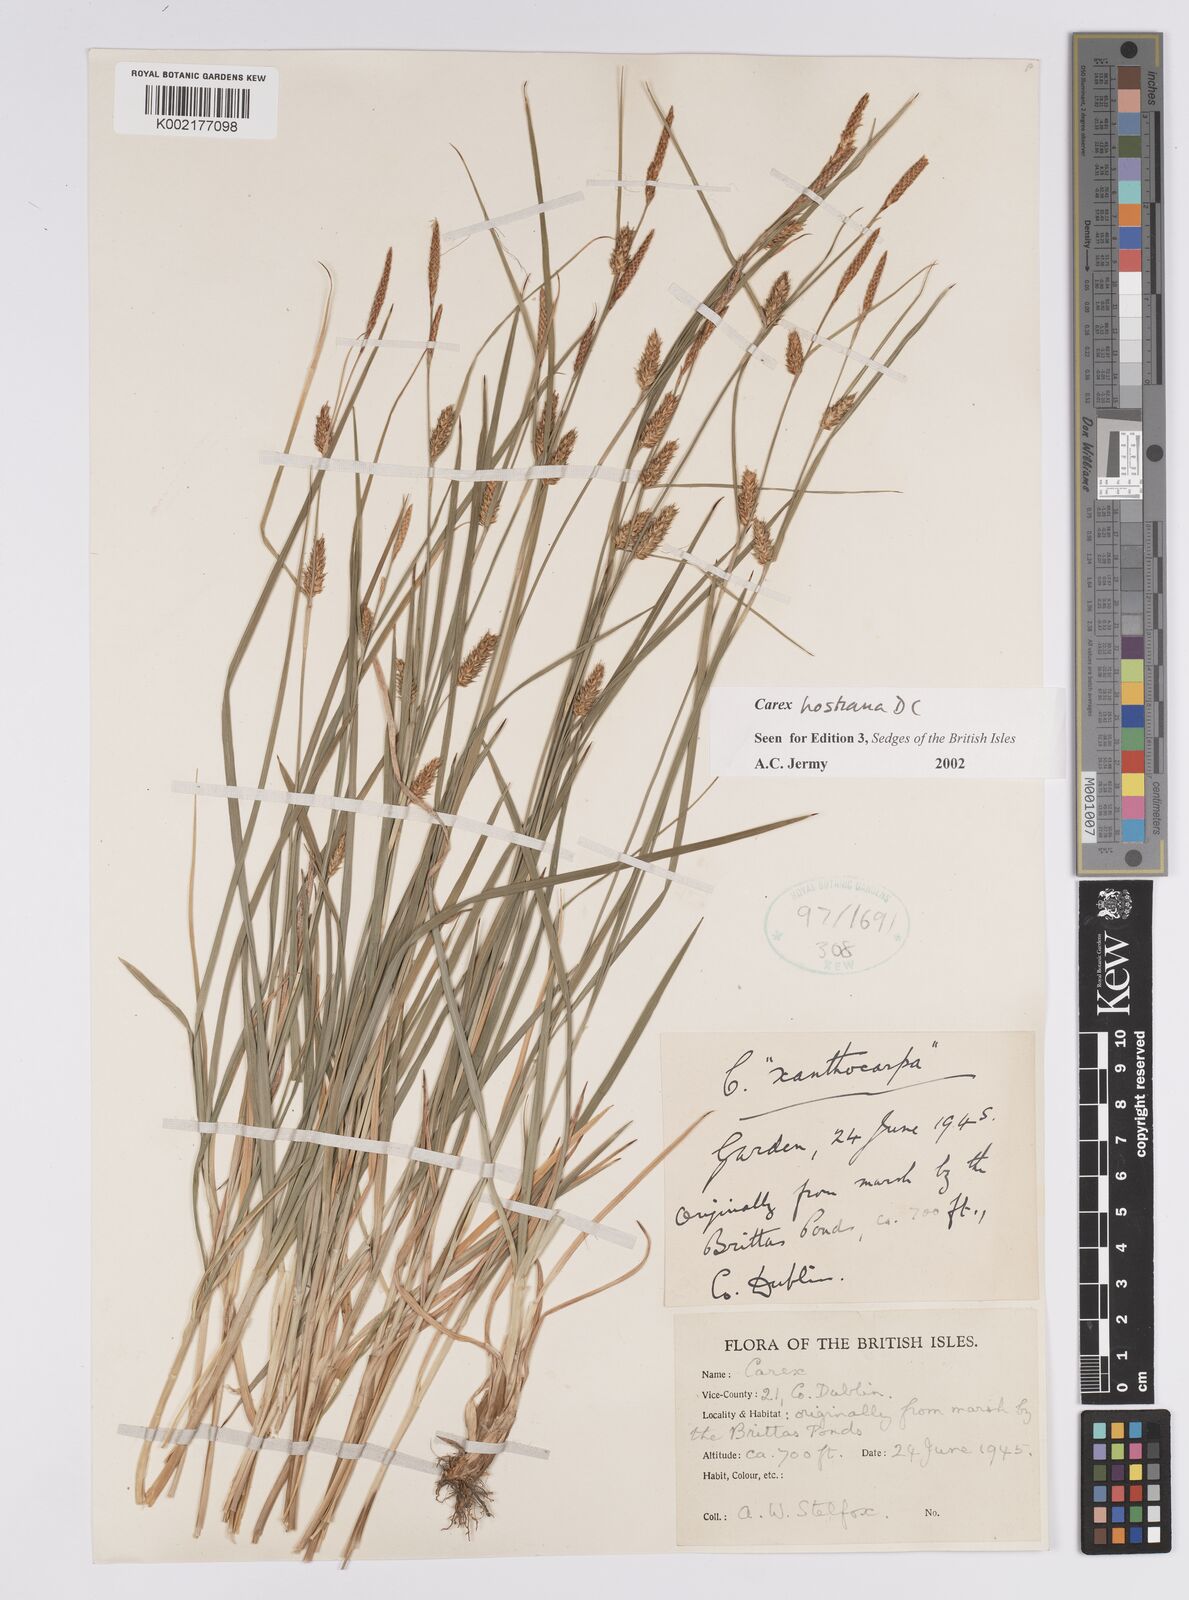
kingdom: Plantae
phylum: Tracheophyta
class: Liliopsida
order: Poales
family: Cyperaceae
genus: Carex
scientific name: Carex hostiana
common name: Tawny sedge
